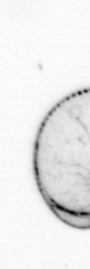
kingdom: Chromista
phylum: Myzozoa
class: Dinophyceae
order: Noctilucales
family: Noctilucaceae
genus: Noctiluca
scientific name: Noctiluca scintillans
